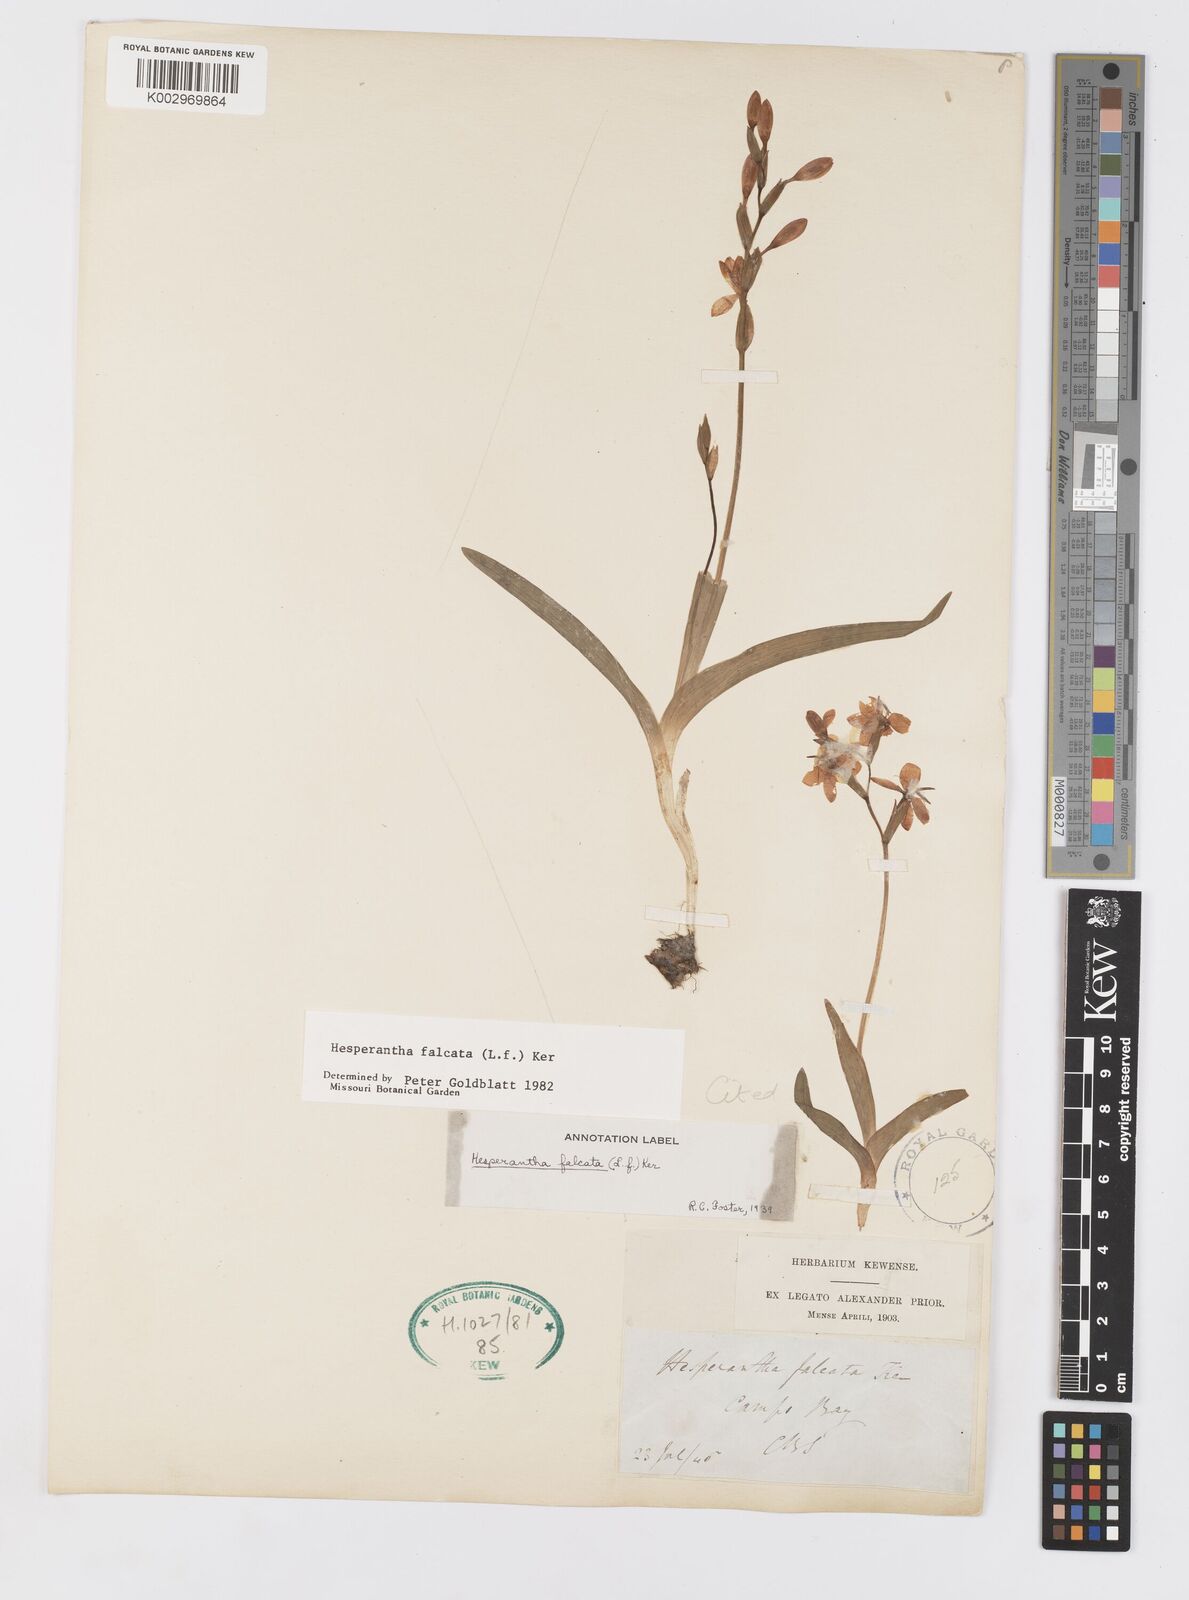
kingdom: Plantae
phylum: Tracheophyta
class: Liliopsida
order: Asparagales
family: Iridaceae
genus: Hesperantha
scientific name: Hesperantha falcata
